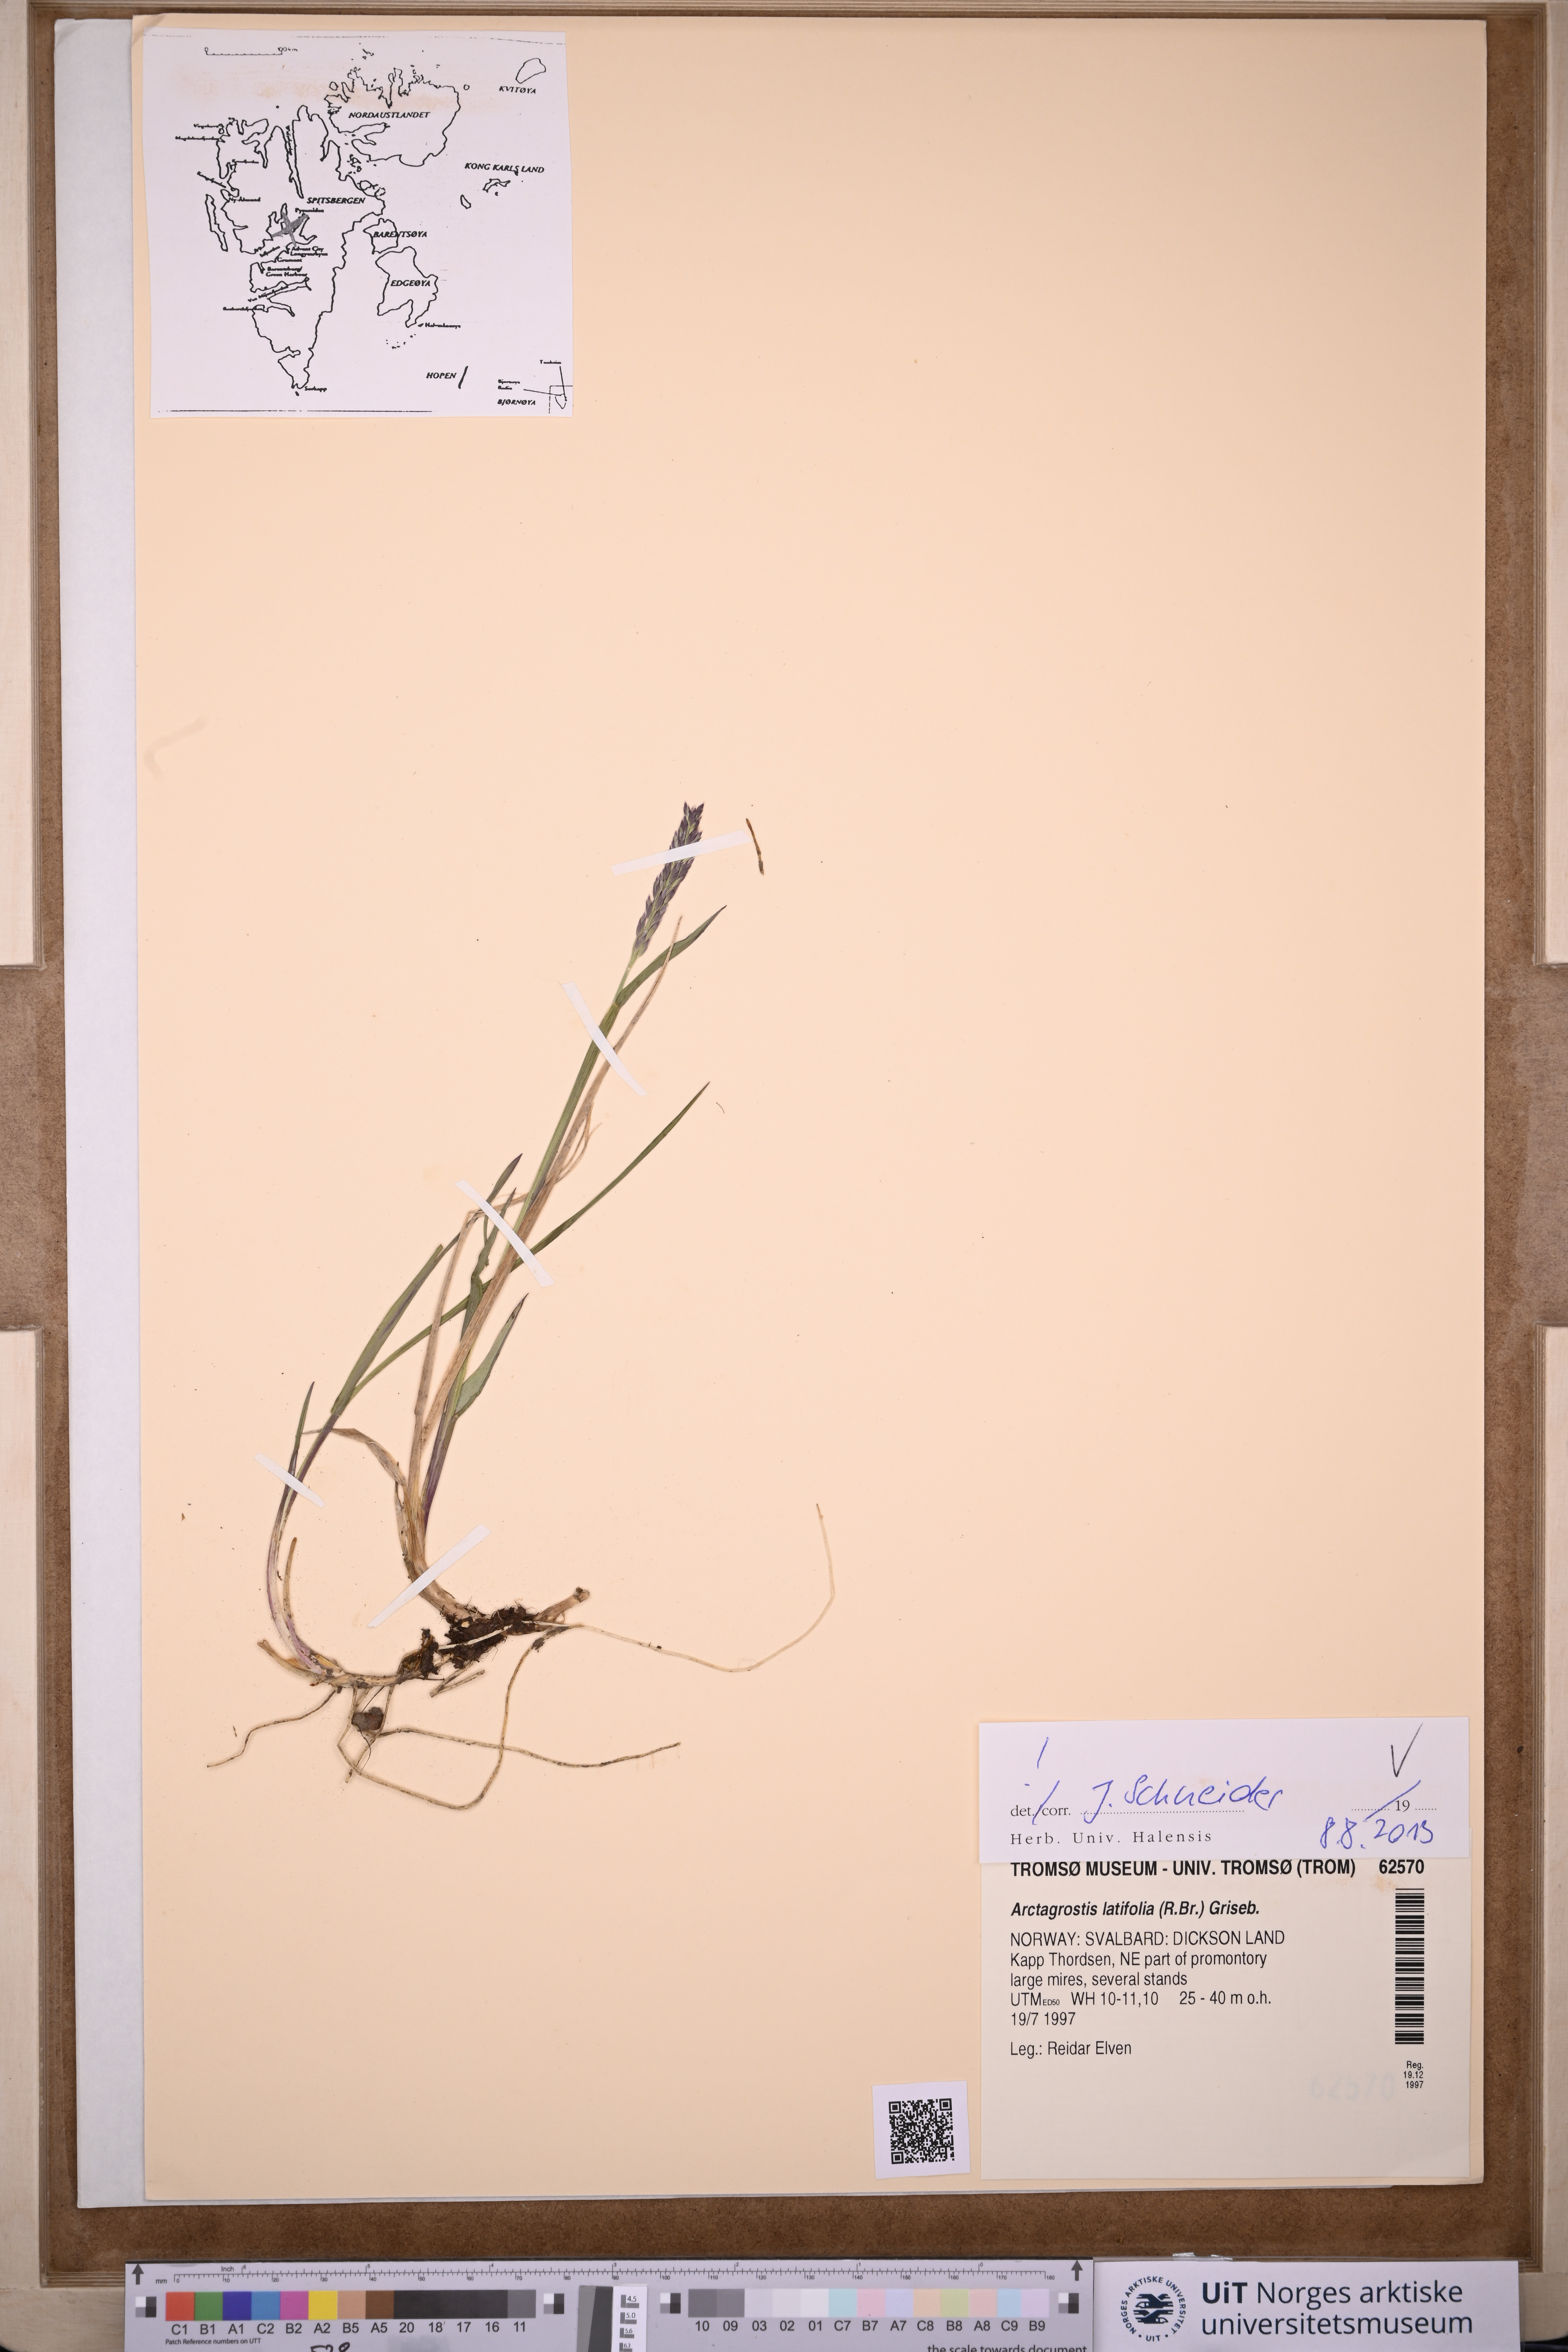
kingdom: Plantae
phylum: Tracheophyta
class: Liliopsida
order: Poales
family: Poaceae
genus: Arctagrostis
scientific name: Arctagrostis latifolia
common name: Arctic grass
